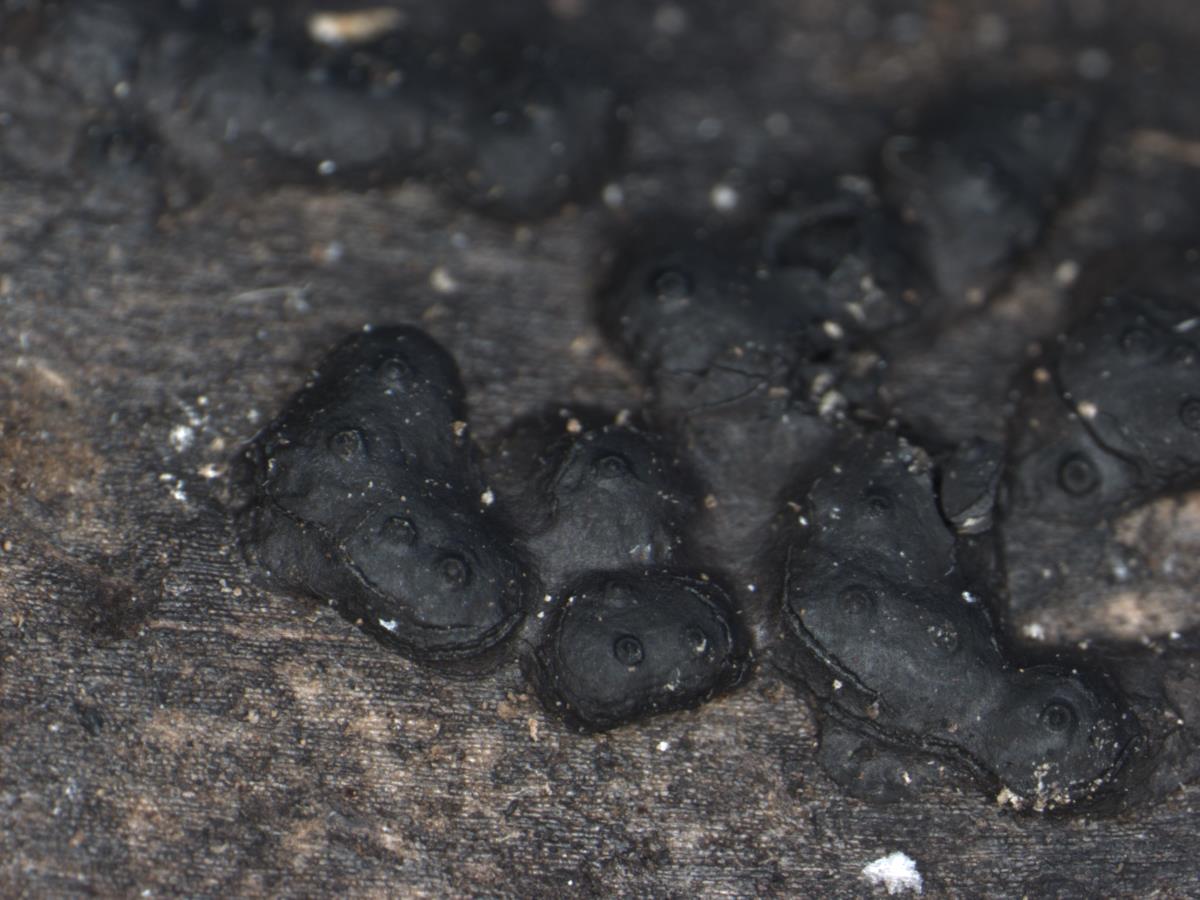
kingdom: Fungi
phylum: Ascomycota
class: Sordariomycetes
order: Xylariales
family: Hypoxylaceae
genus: Annulohypoxylon
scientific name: Annulohypoxylon
